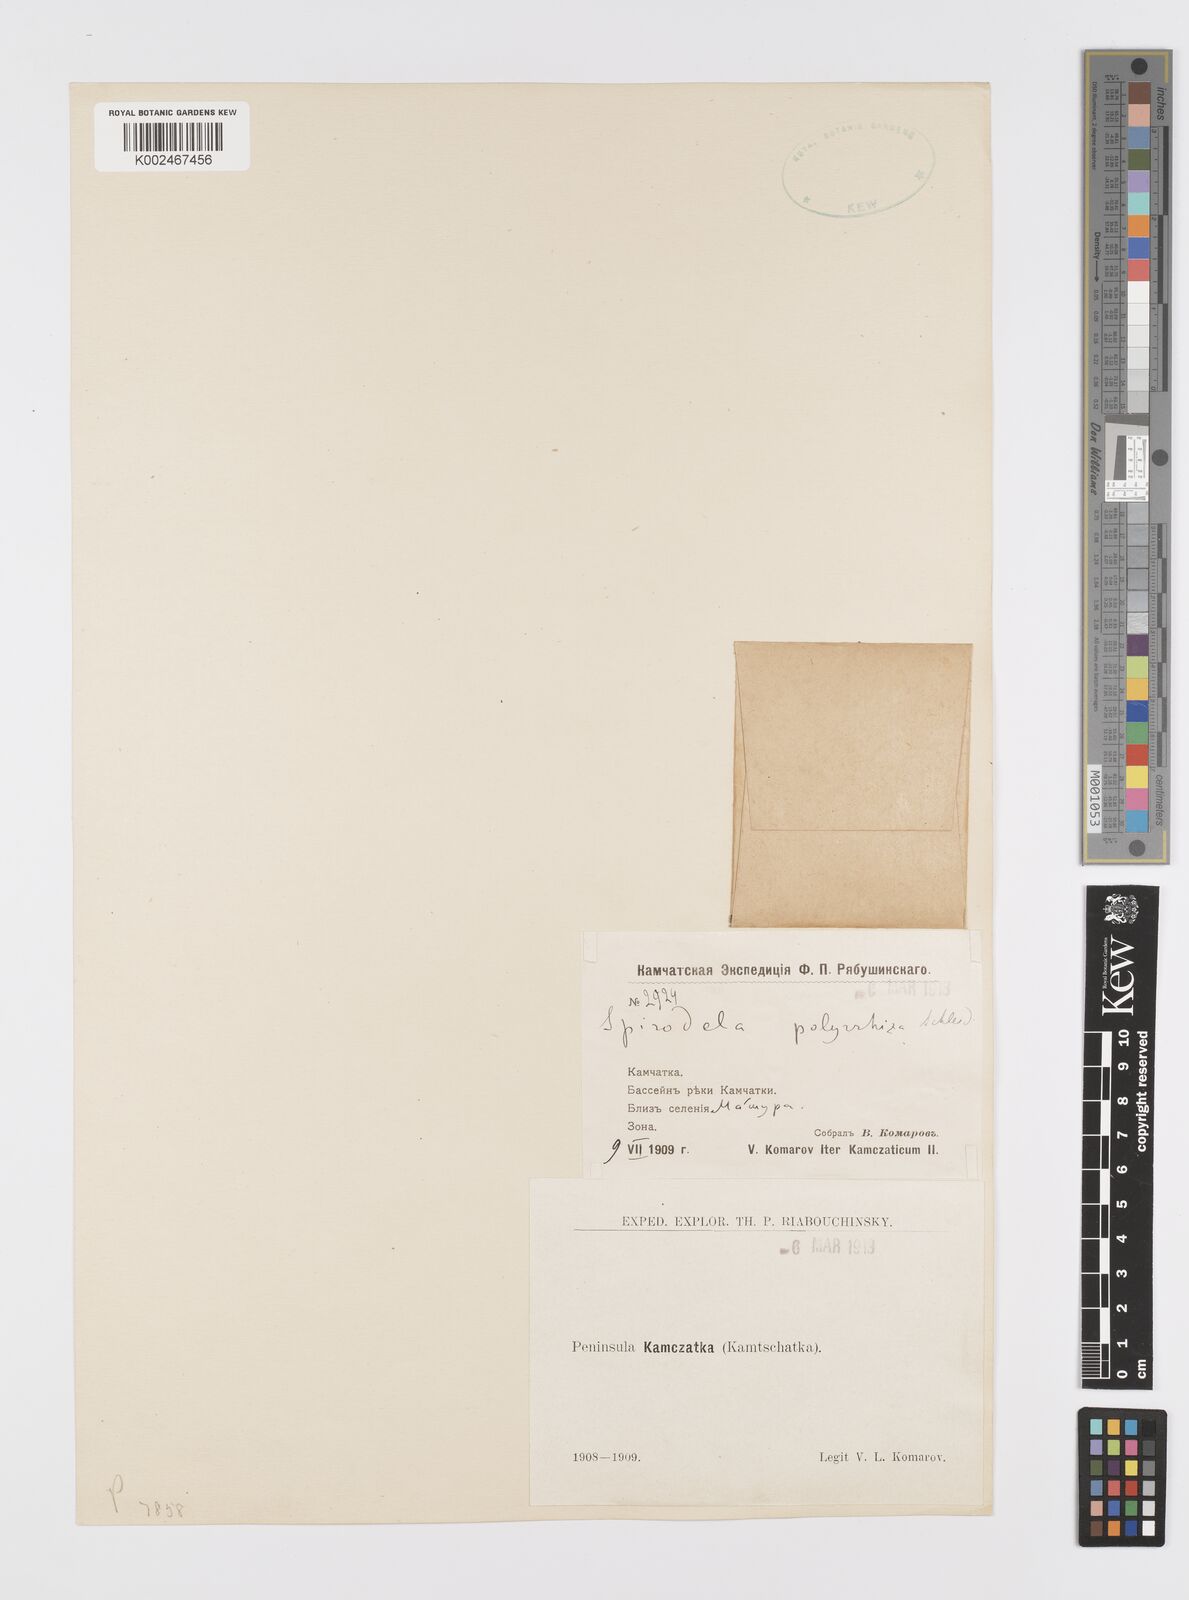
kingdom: Plantae
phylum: Tracheophyta
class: Liliopsida
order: Alismatales
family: Araceae
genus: Spirodela
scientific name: Spirodela polyrhiza
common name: Great duckweed
